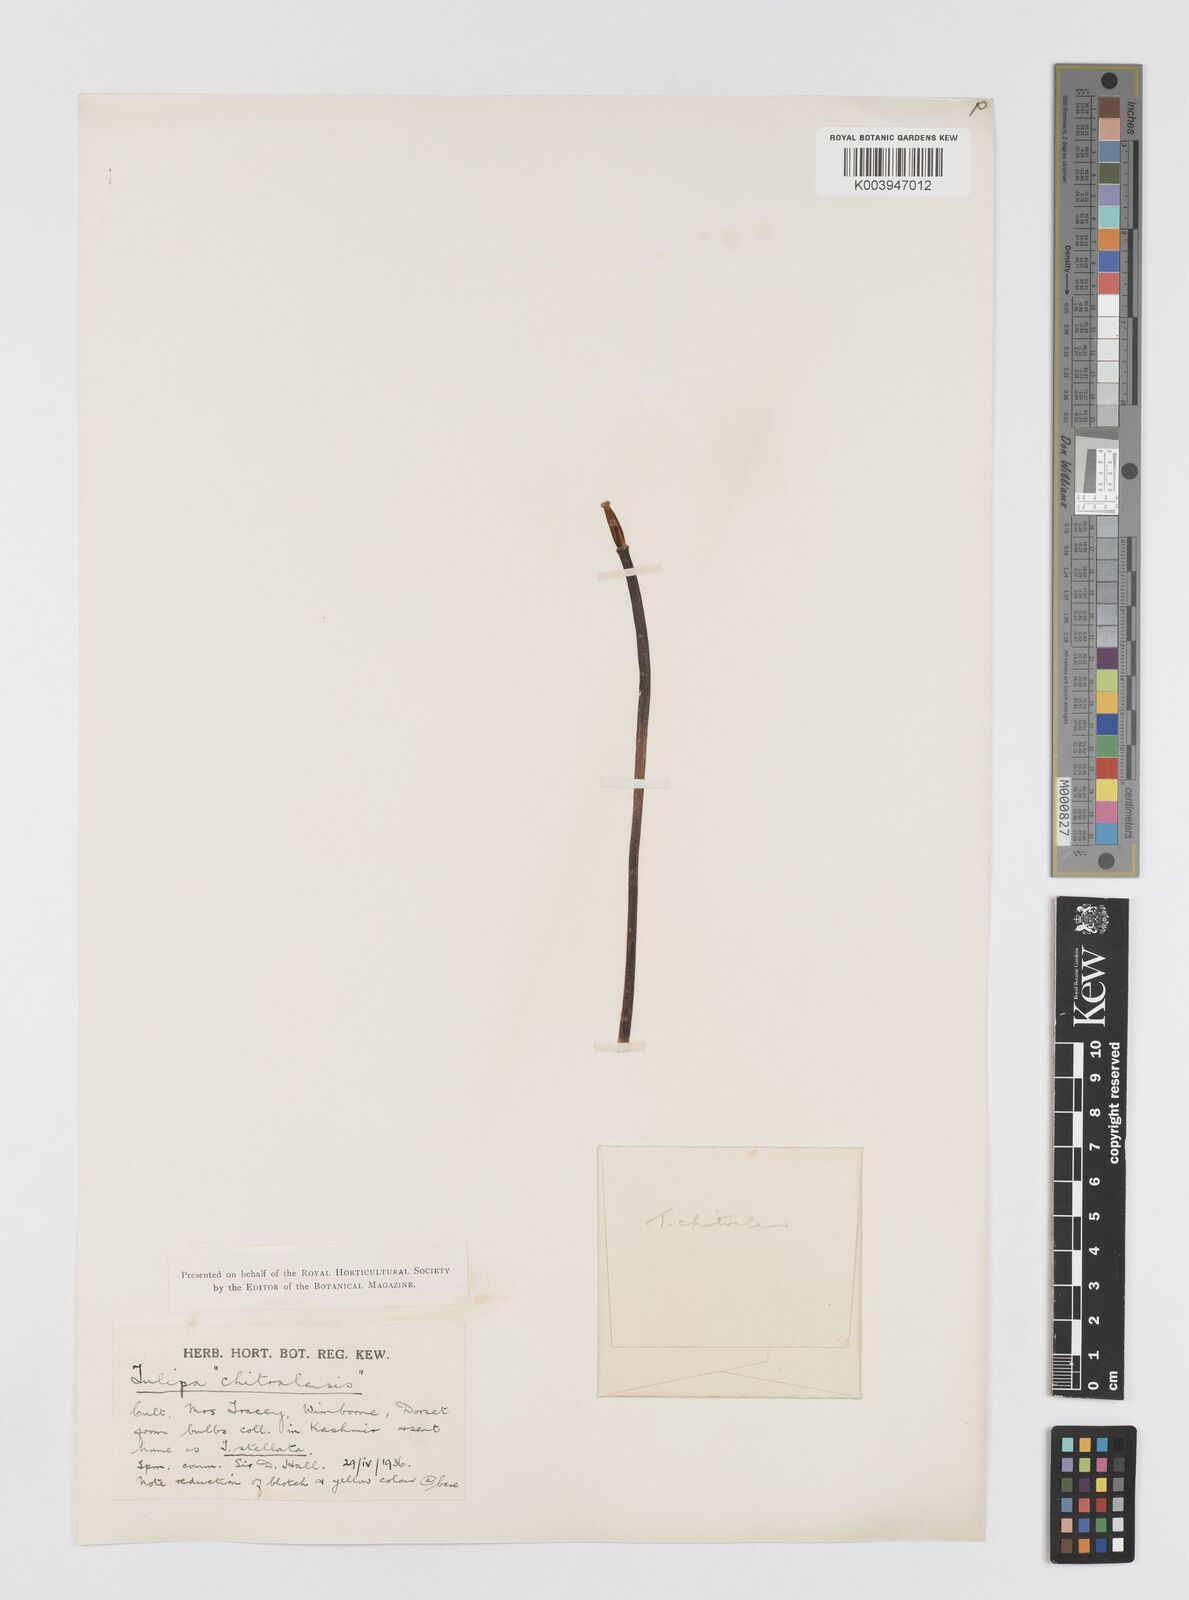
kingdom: Plantae
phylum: Tracheophyta
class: Liliopsida
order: Liliales
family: Liliaceae
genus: Tulipa
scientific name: Tulipa clusiana
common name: Lady tulip
